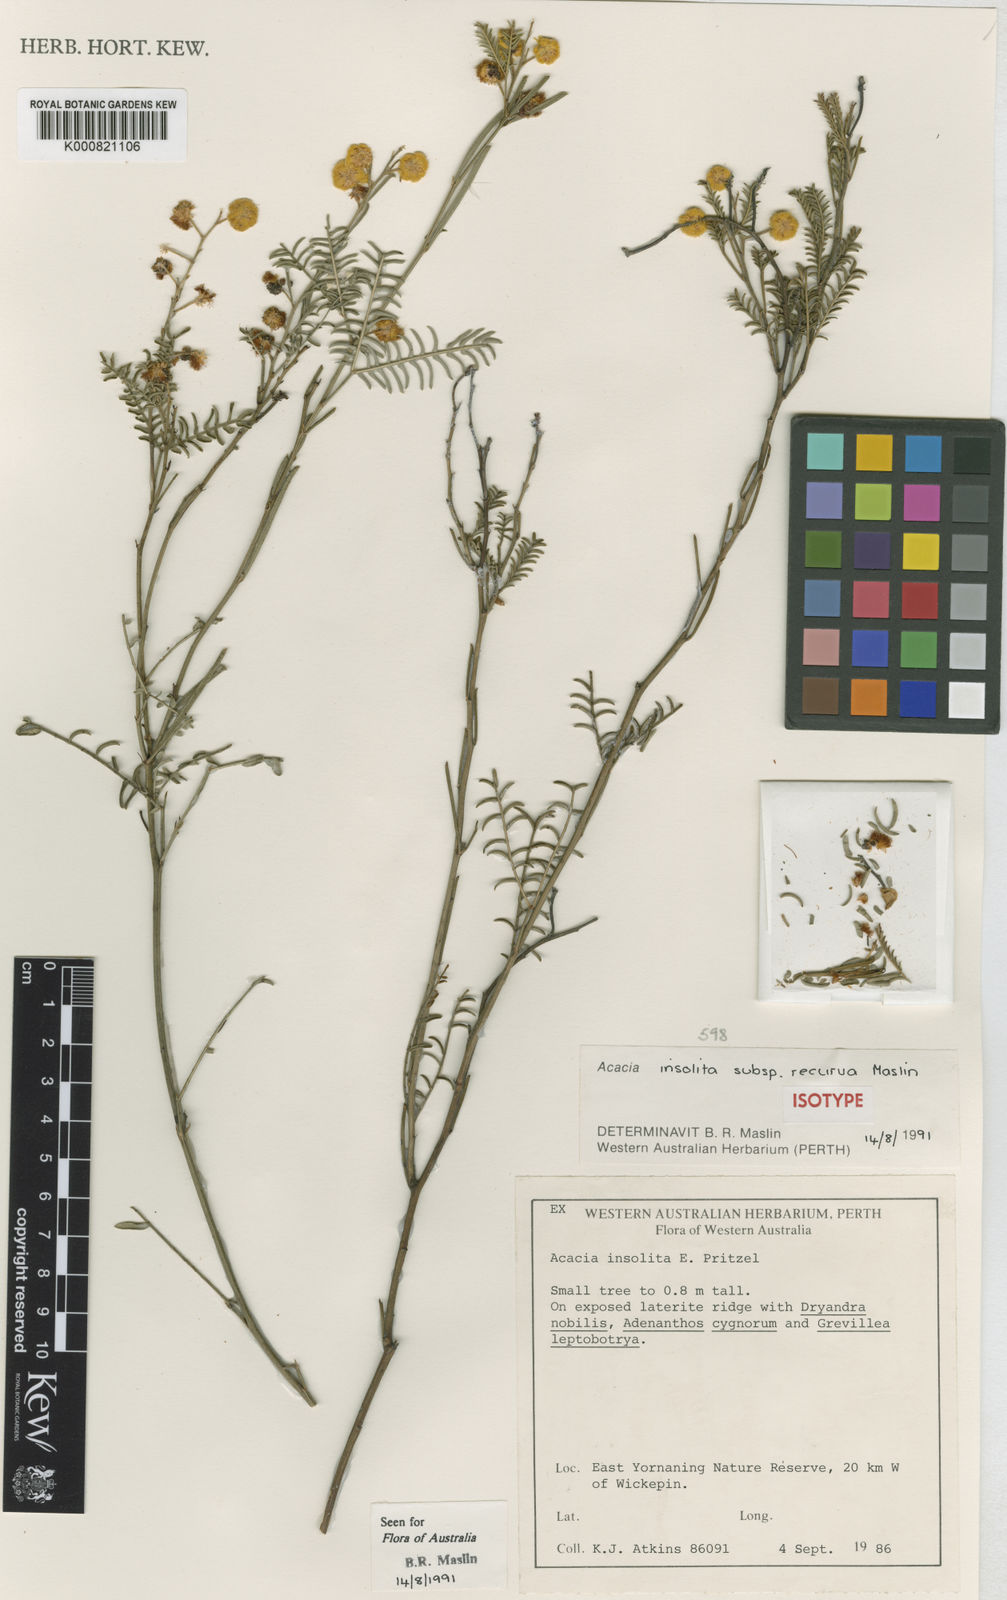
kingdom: Plantae
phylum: Tracheophyta
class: Magnoliopsida
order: Fabales
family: Fabaceae
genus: Acacia
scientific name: Acacia insolita
